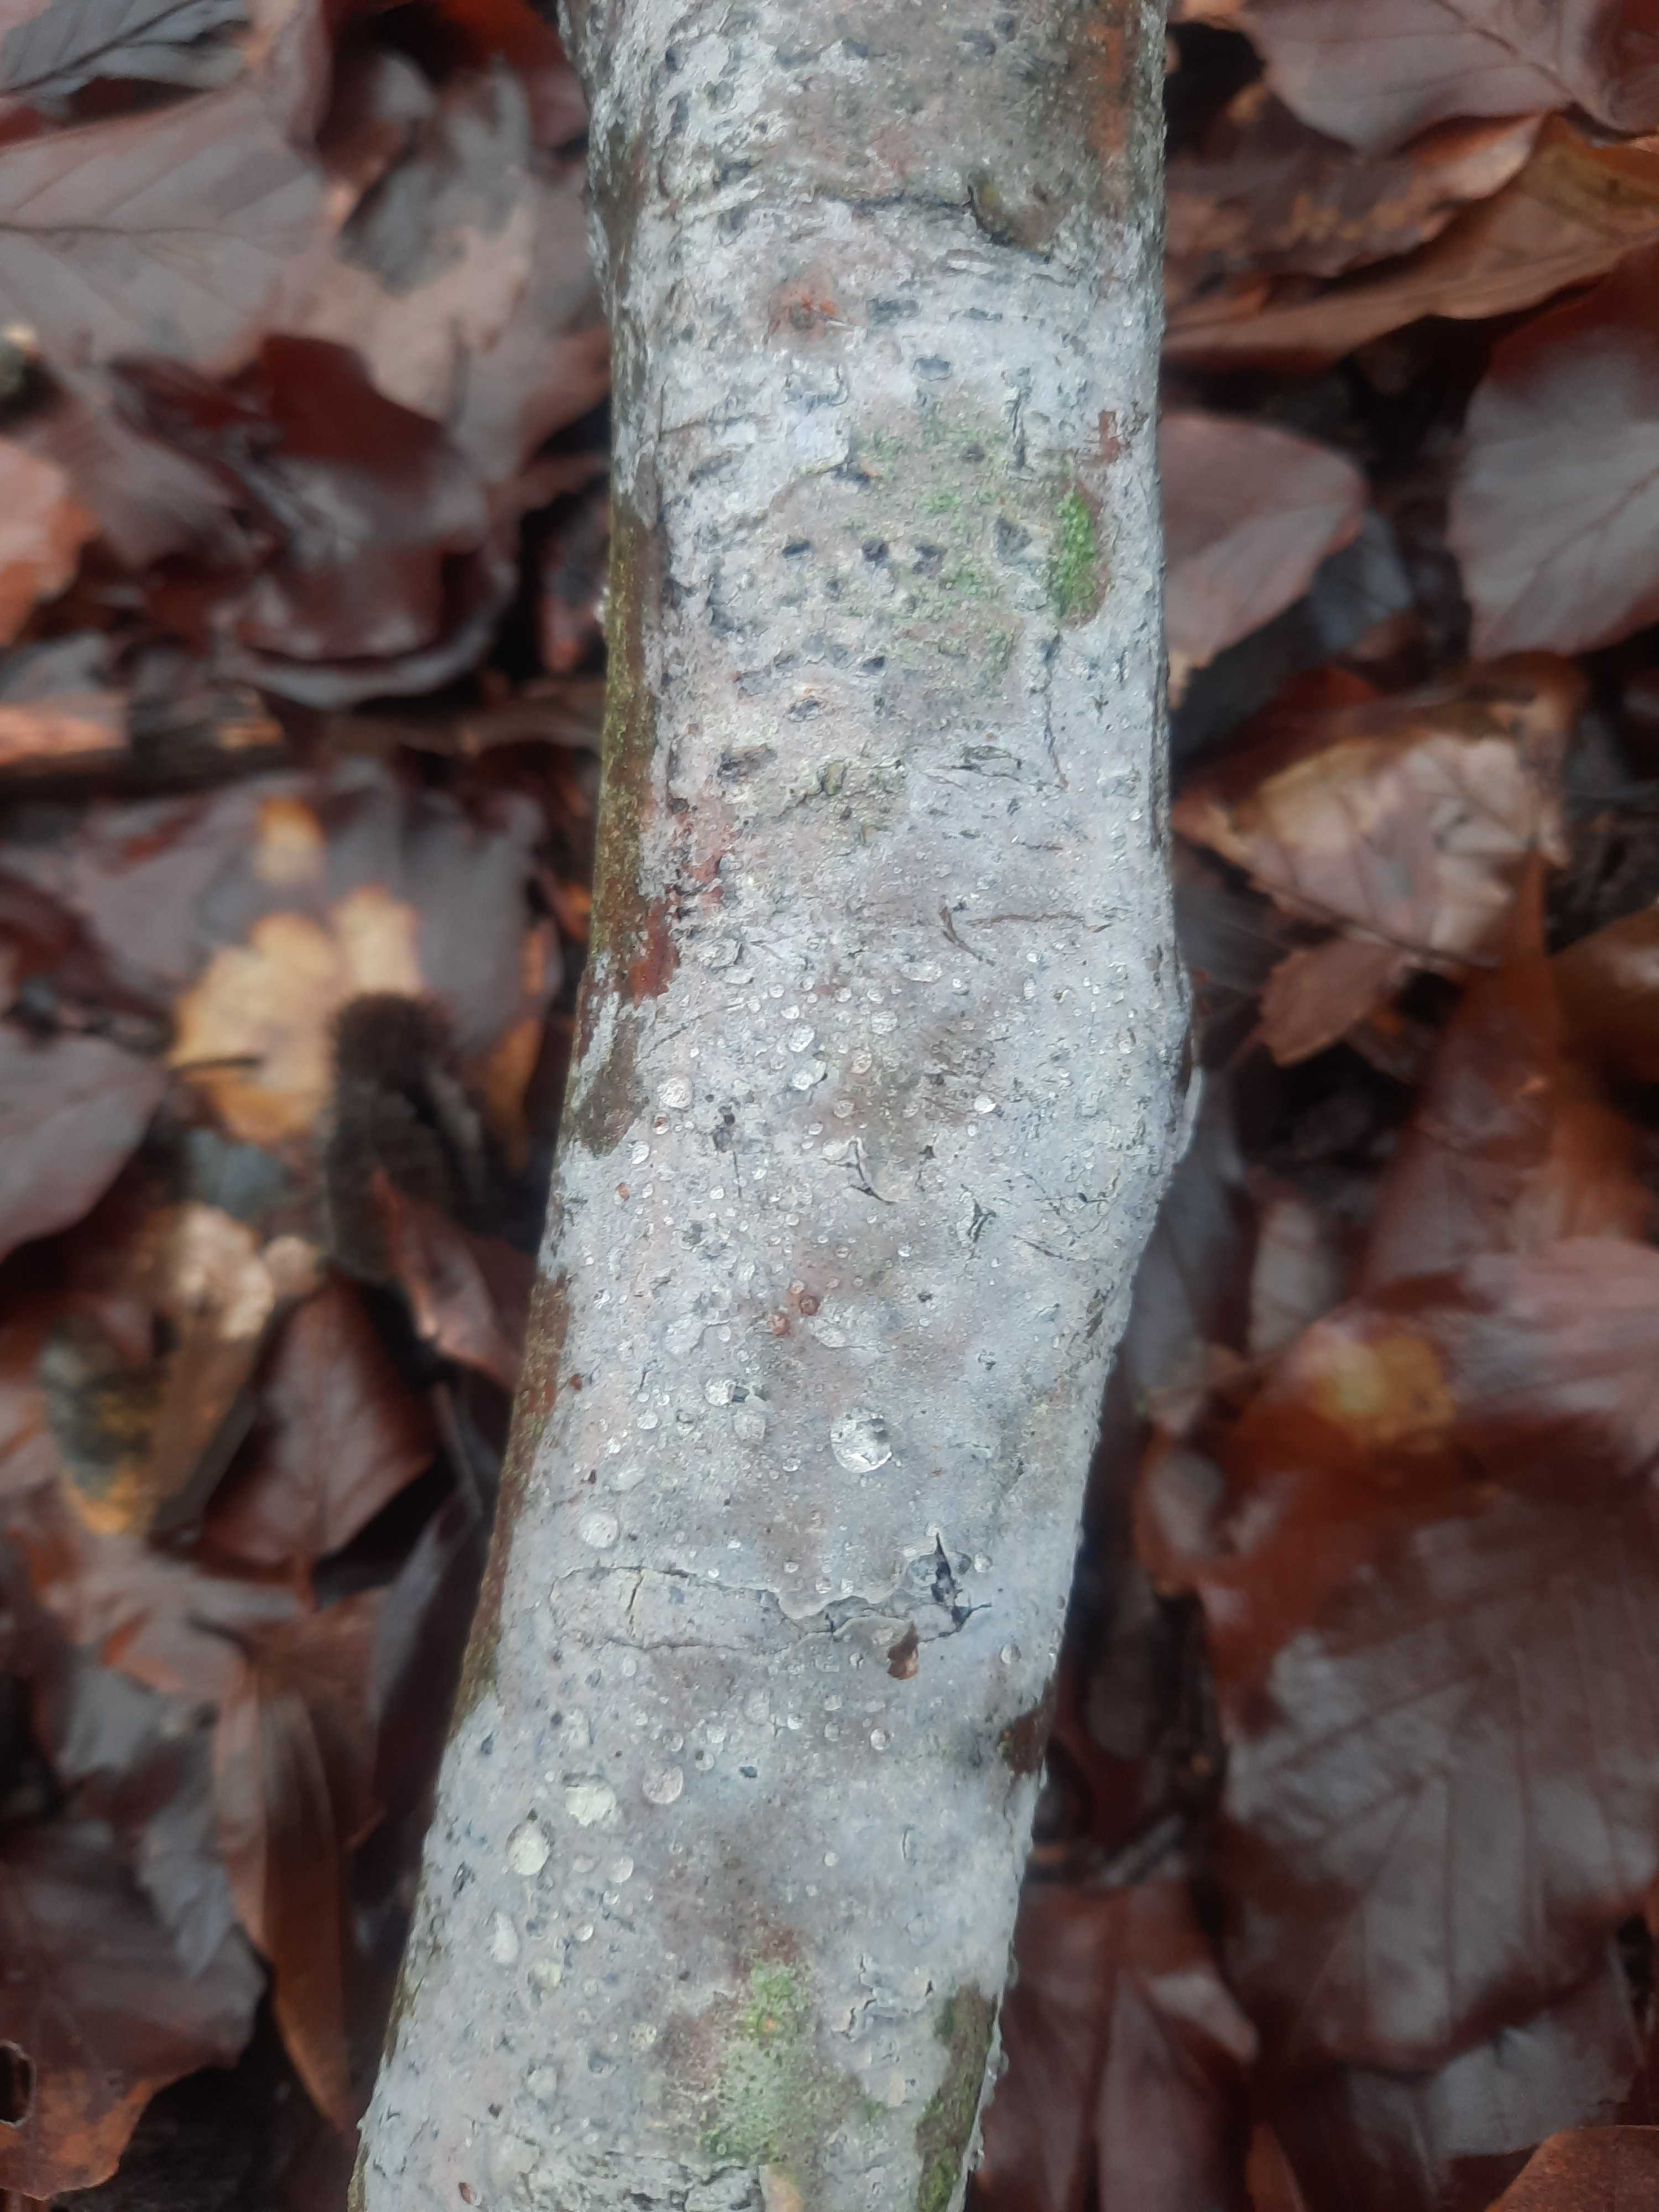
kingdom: Fungi
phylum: Basidiomycota
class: Agaricomycetes
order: Corticiales
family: Corticiaceae
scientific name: Corticiaceae
